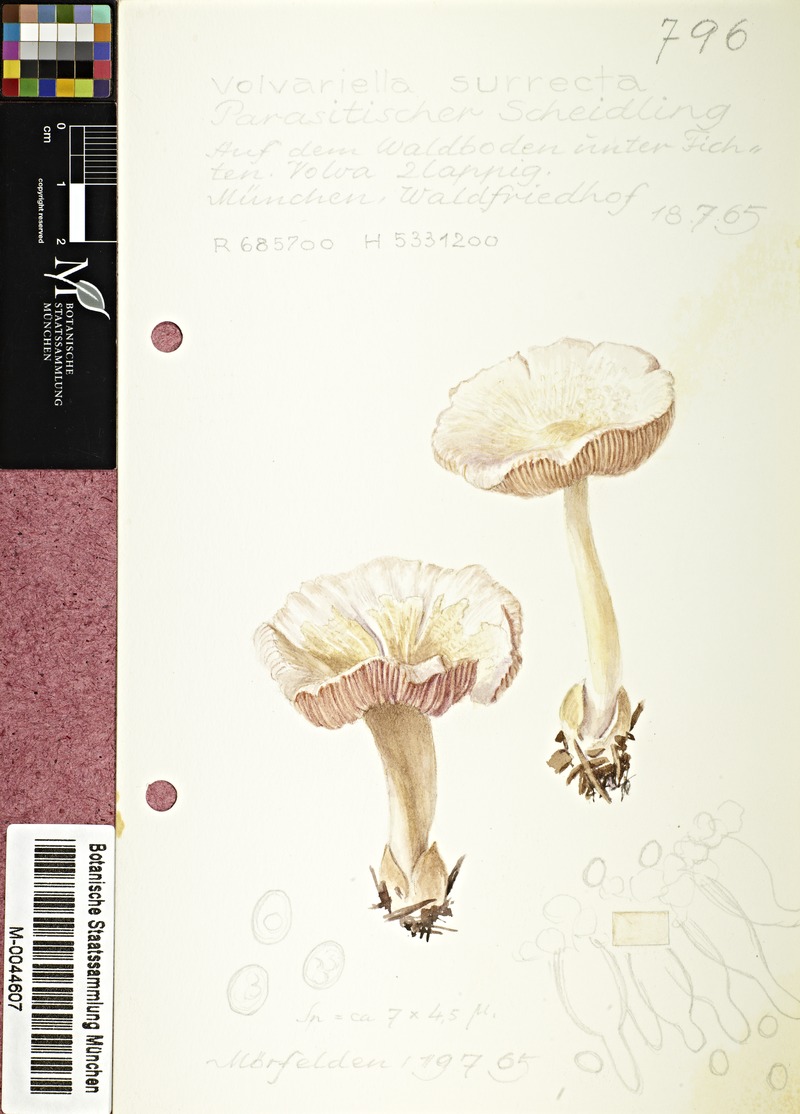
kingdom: Fungi
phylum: Basidiomycota
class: Agaricomycetes
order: Agaricales
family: Pluteaceae
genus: Volvariella
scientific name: Volvariella surrecta
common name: Piggyback rosegill
